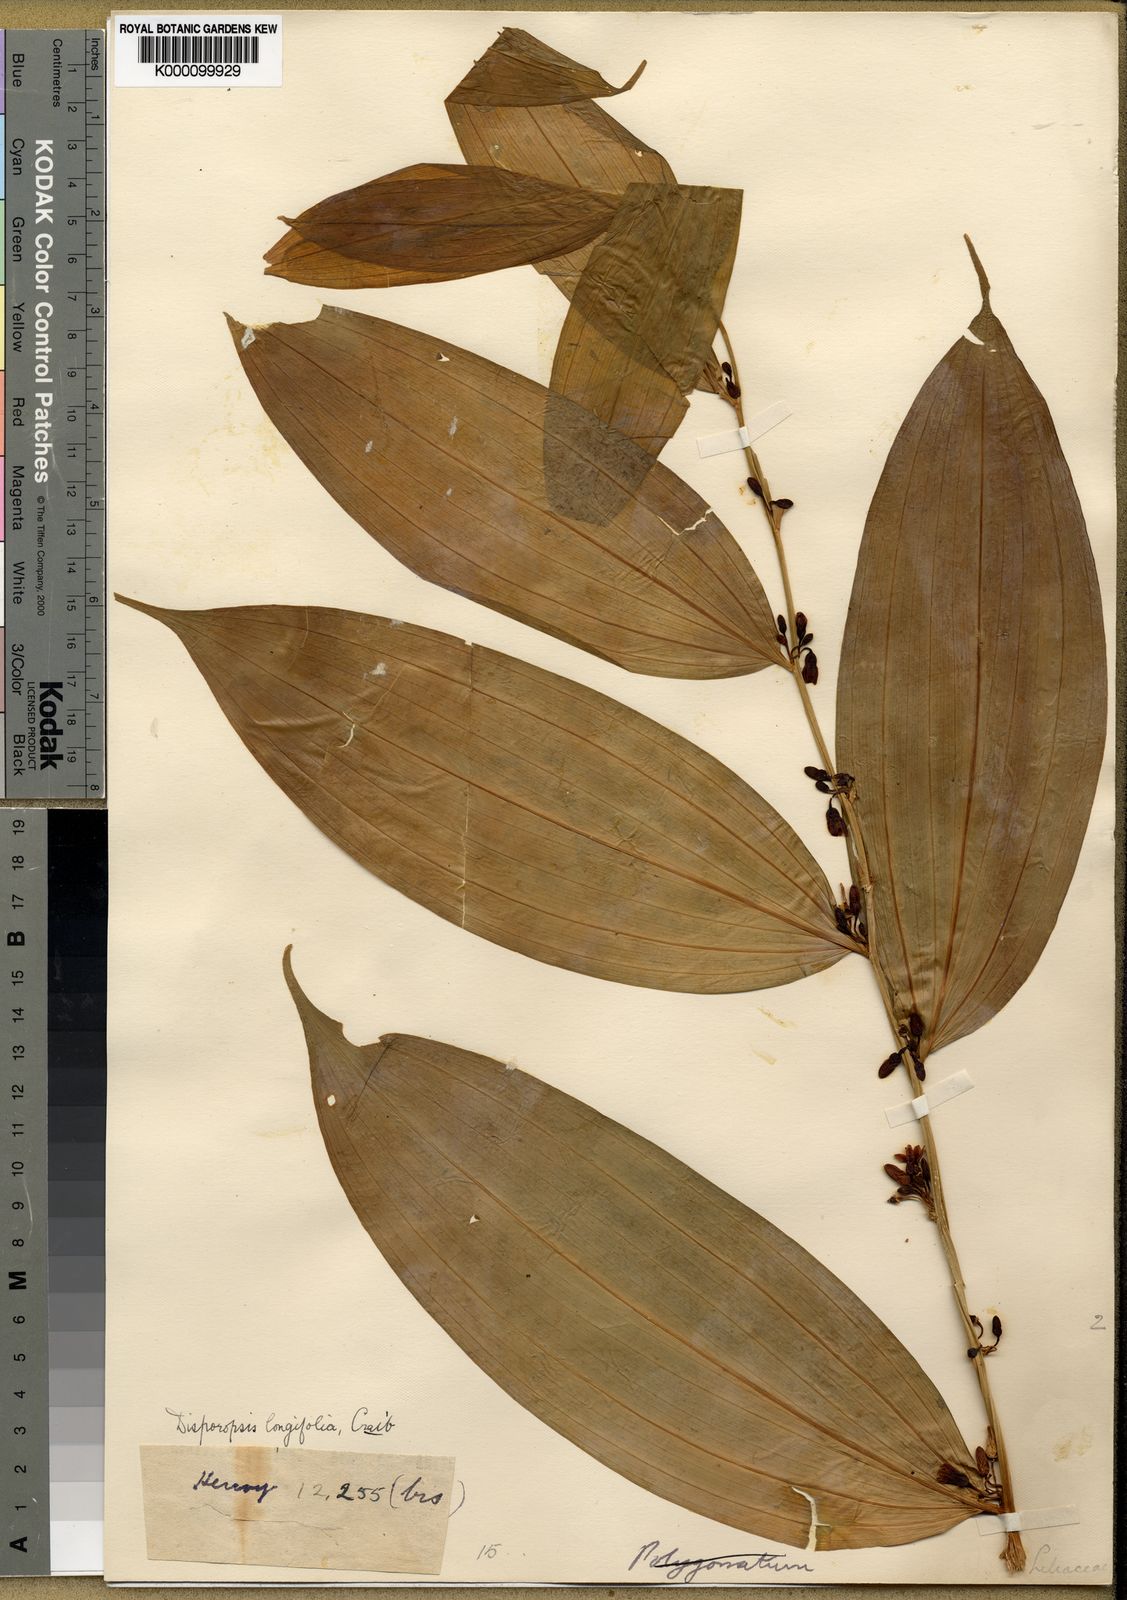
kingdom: Plantae
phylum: Tracheophyta
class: Liliopsida
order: Asparagales
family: Asparagaceae
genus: Disporopsis
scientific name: Disporopsis longifolia
